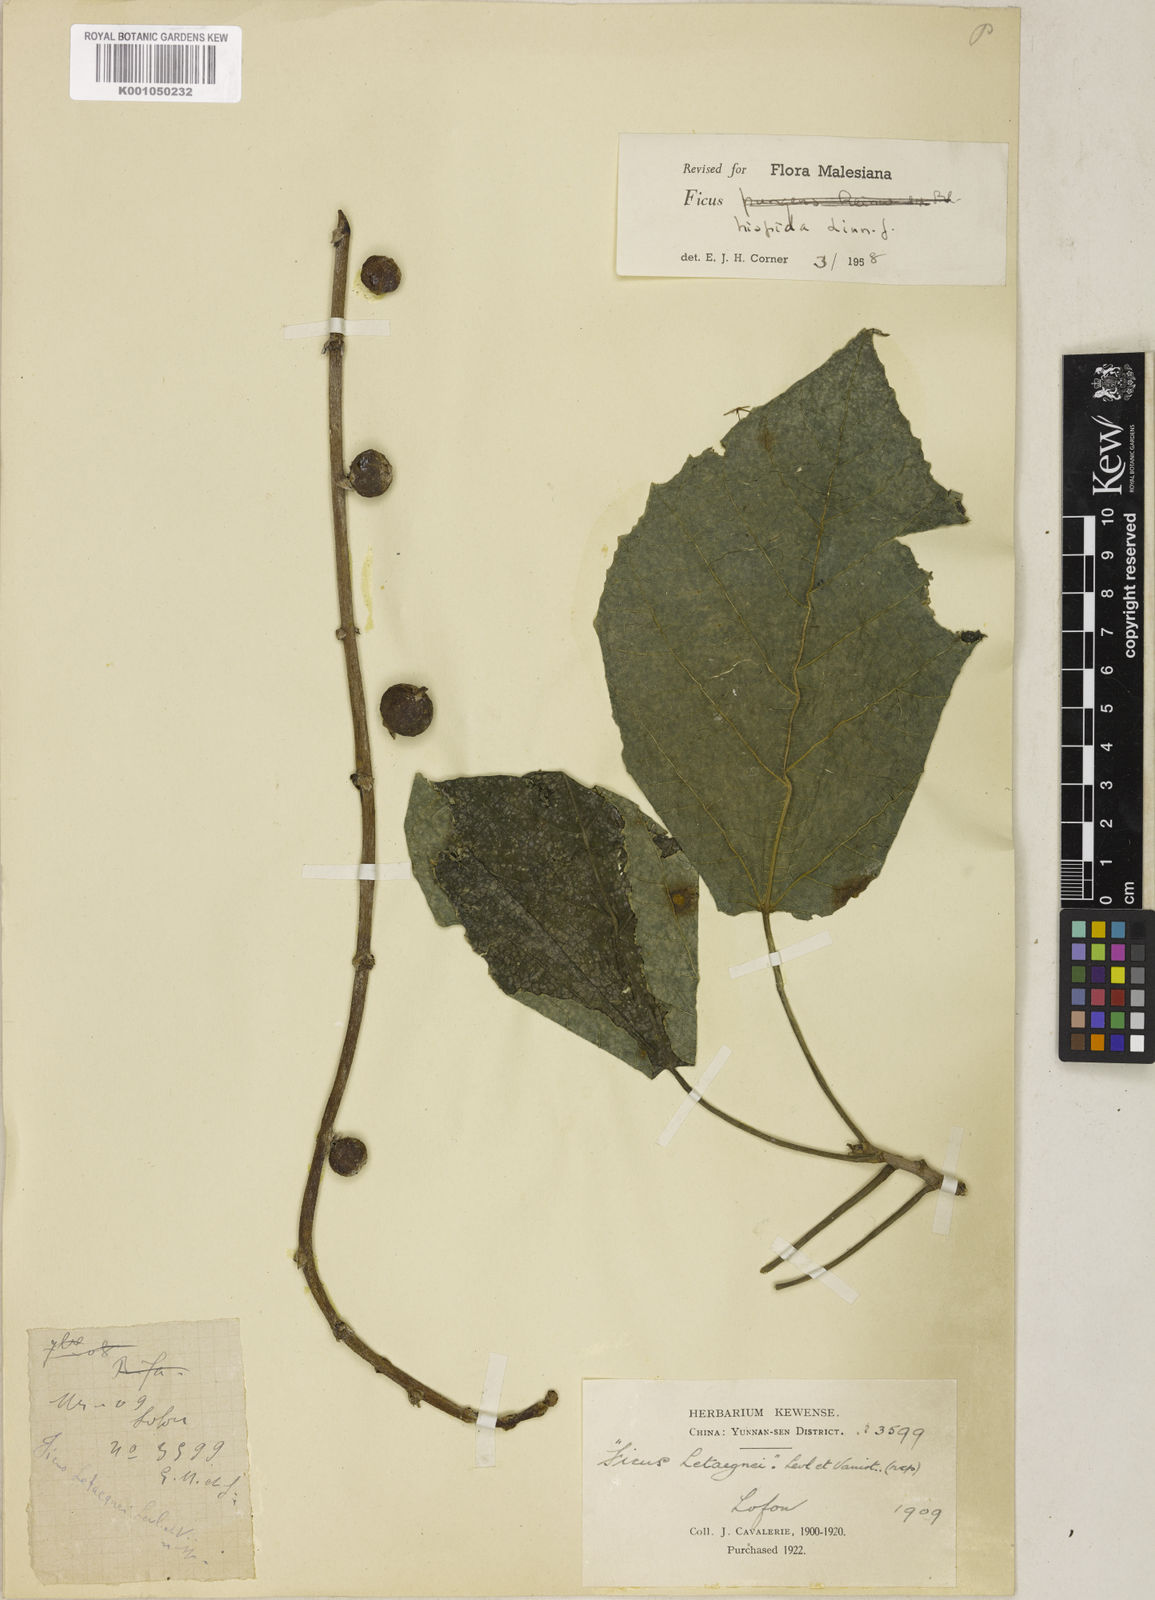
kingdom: Plantae
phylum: Tracheophyta
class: Magnoliopsida
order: Rosales
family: Moraceae
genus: Ficus
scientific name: Ficus hispida
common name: Hairy fig
